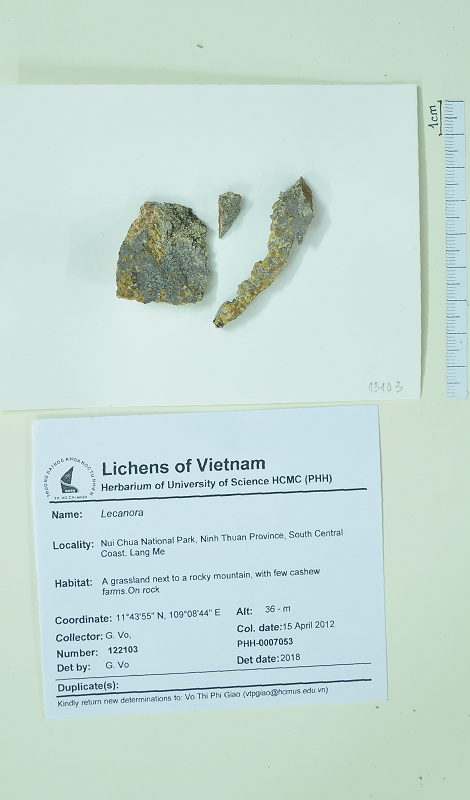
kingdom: Fungi
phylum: Ascomycota
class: Lecanoromycetes
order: Lecanorales
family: Lecanoraceae
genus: Lecanora
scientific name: Lecanora
